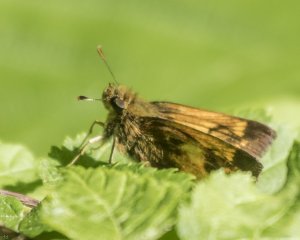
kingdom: Animalia
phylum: Arthropoda
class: Insecta
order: Lepidoptera
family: Hesperiidae
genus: Lon
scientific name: Lon hobomok
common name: Hobomok Skipper
